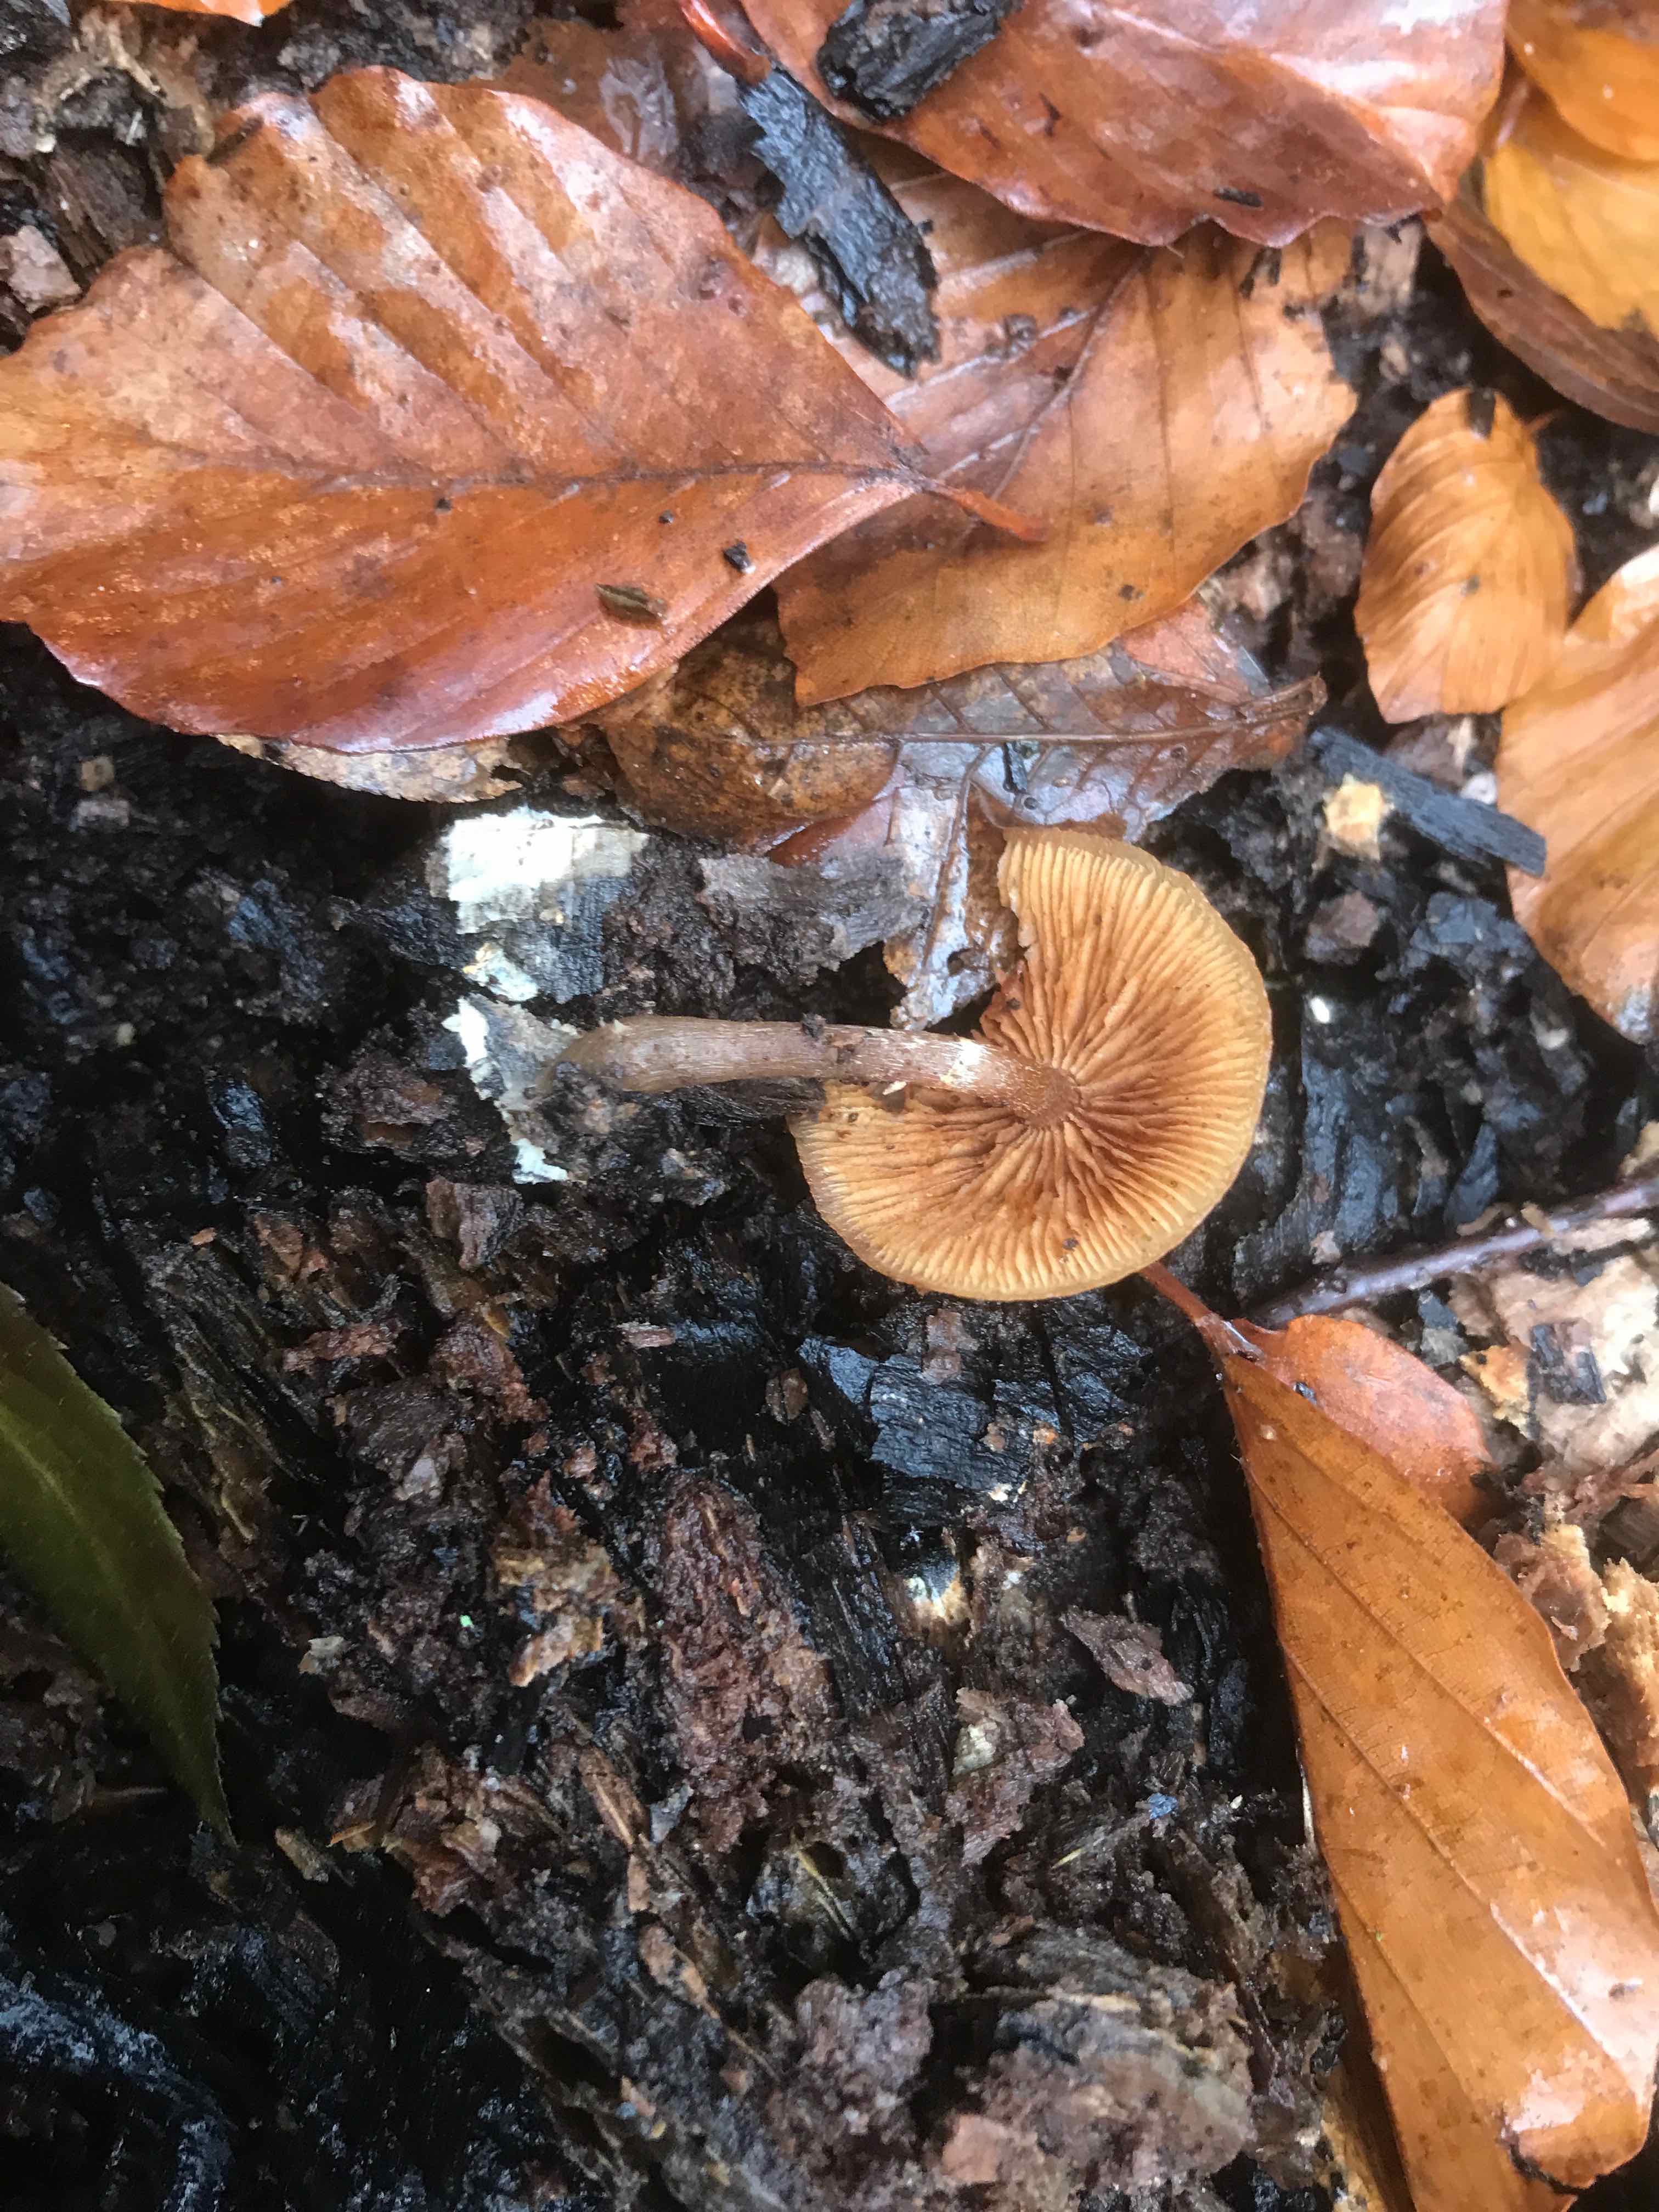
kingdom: Fungi
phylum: Basidiomycota
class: Agaricomycetes
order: Agaricales
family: Hymenogastraceae
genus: Galerina
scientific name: Galerina marginata
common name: randbæltet hjelmhat
